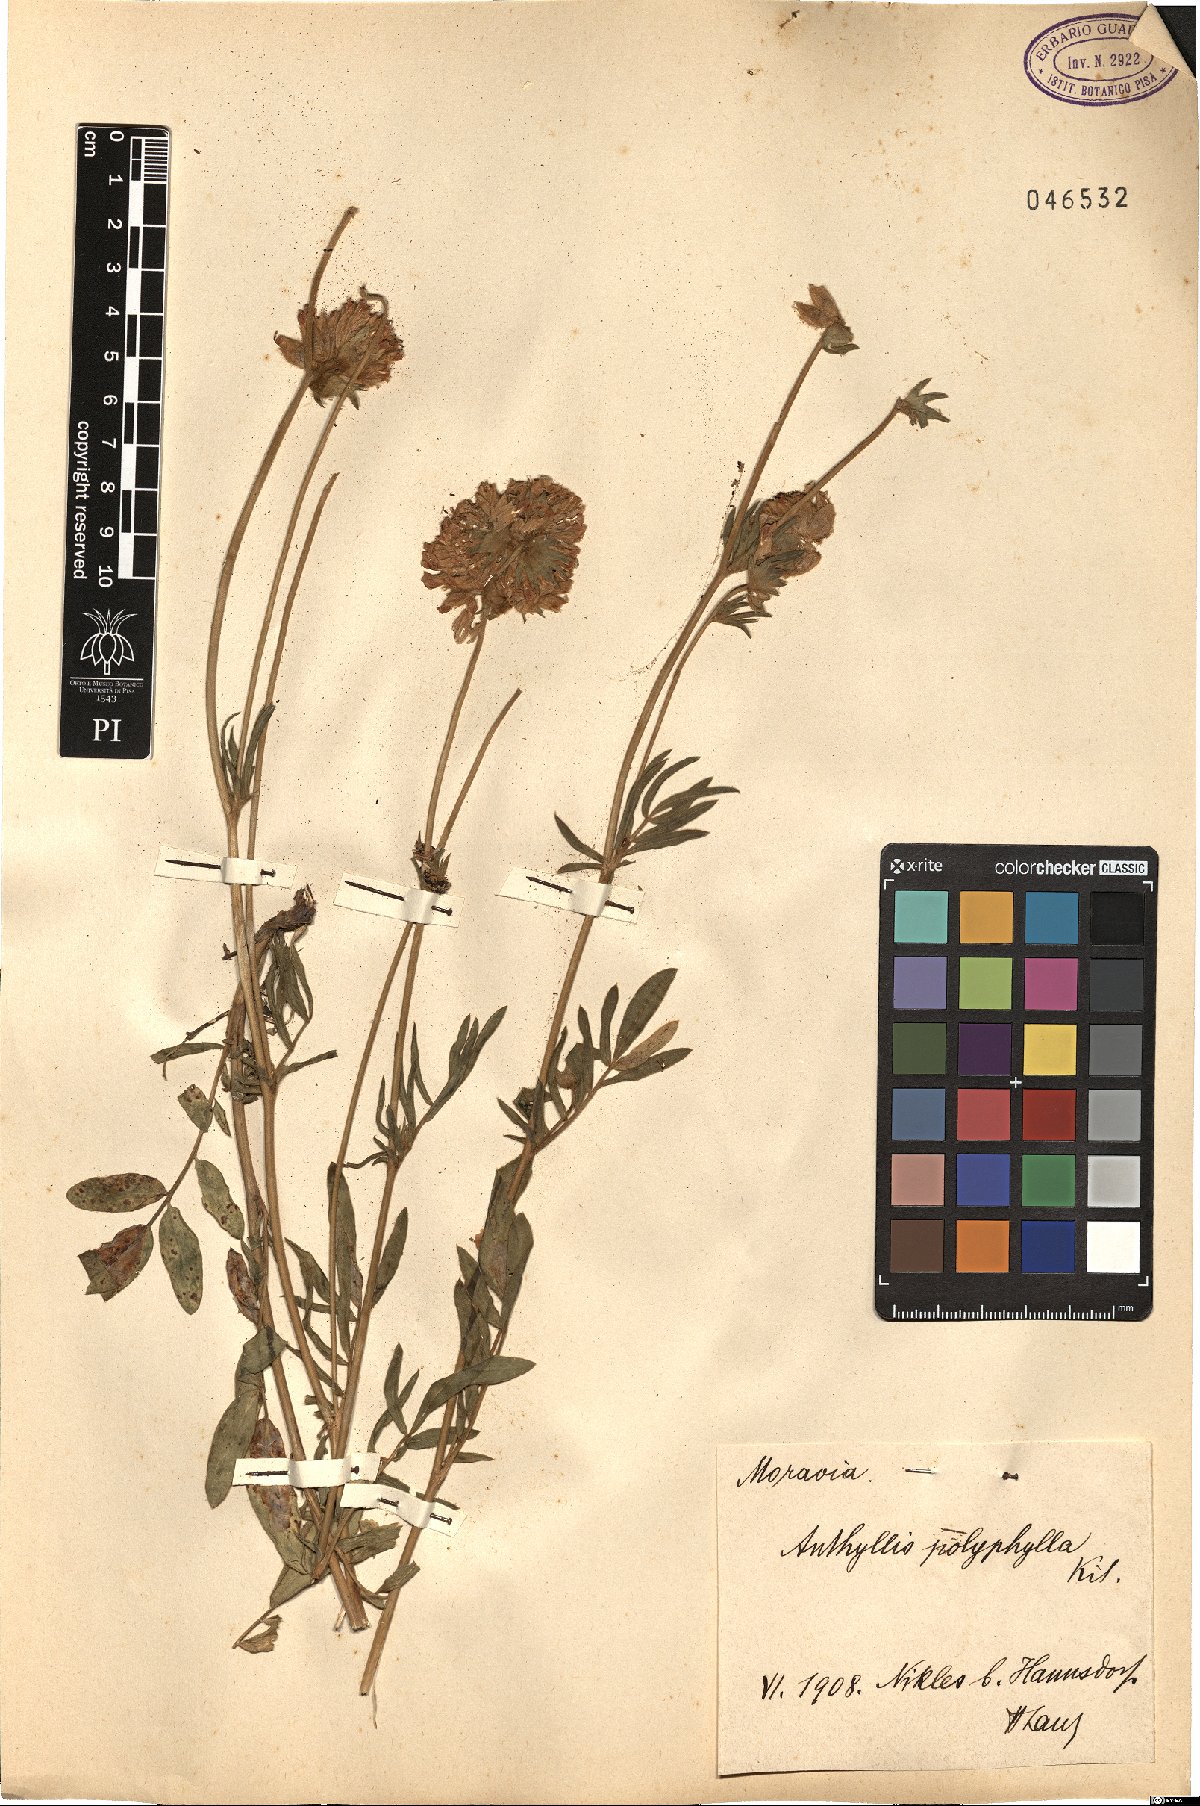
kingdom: Plantae
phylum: Tracheophyta
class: Magnoliopsida
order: Fabales
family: Fabaceae
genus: Anthyllis
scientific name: Anthyllis vulneraria
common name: Kidney vetch
